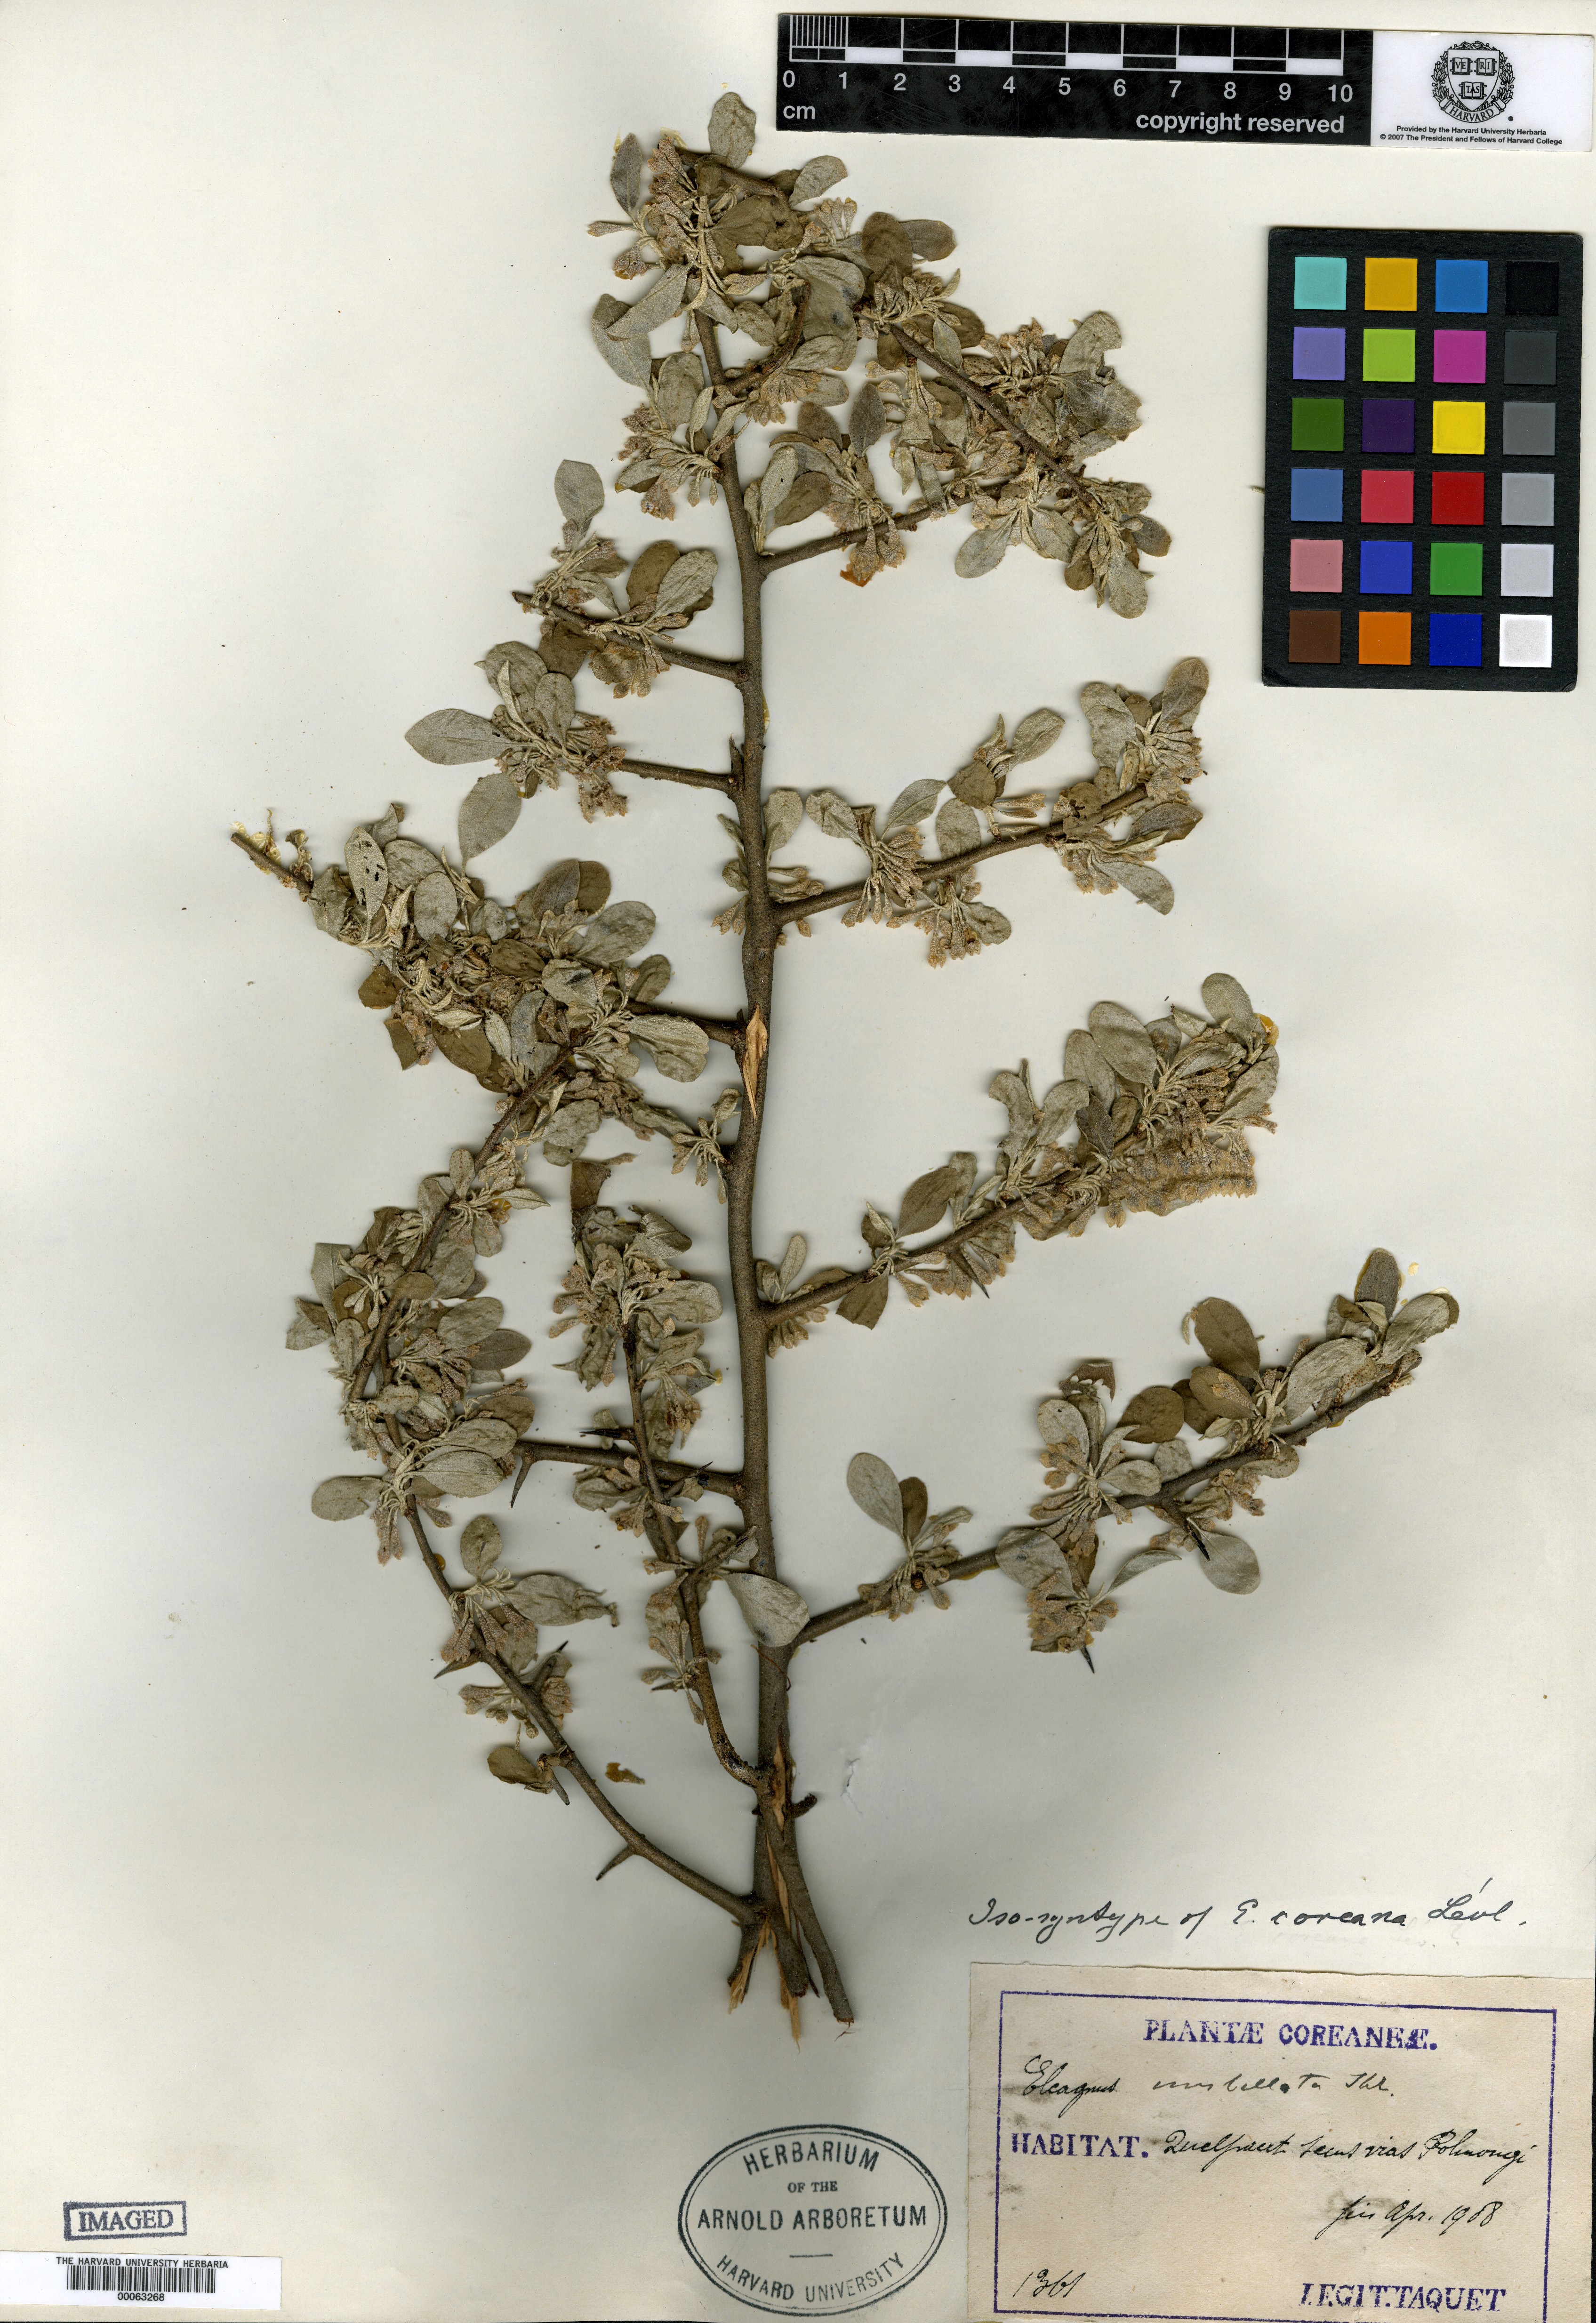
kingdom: Plantae
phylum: Tracheophyta
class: Magnoliopsida
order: Rosales
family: Elaeagnaceae
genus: Elaeagnus
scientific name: Elaeagnus umbellata
